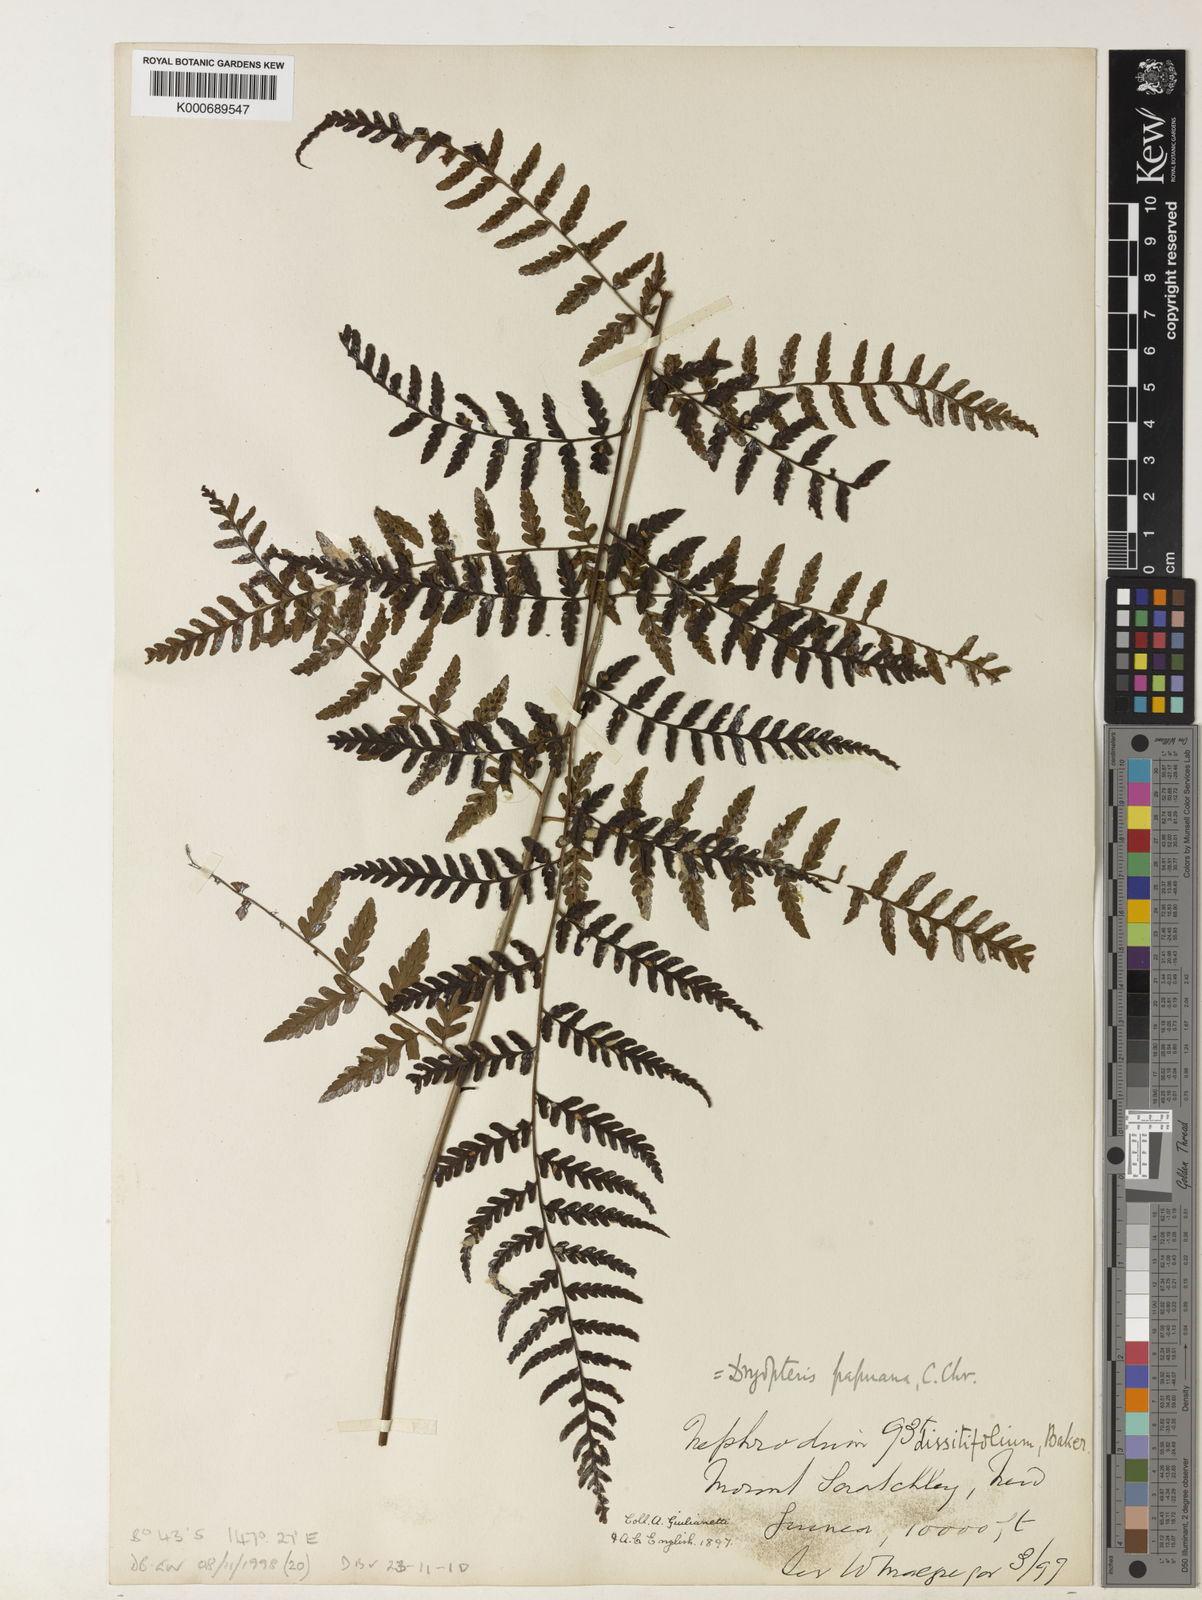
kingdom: Plantae
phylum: Tracheophyta
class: Polypodiopsida
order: Polypodiales
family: Dryopteridaceae
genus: Dryopteris
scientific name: Dryopteris papuana
